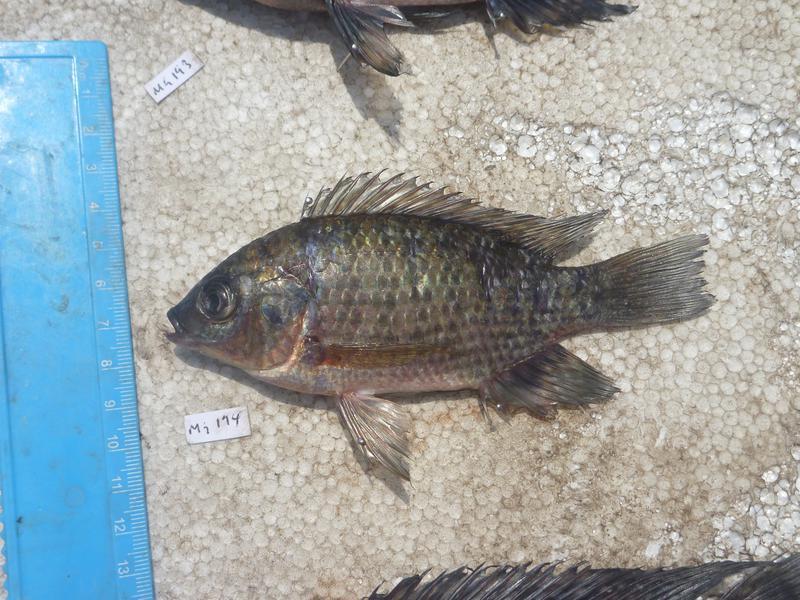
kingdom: Animalia
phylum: Chordata
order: Perciformes
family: Cichlidae
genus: Oreochromis
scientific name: Oreochromis leucostictus
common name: Blue spotted tilapia
